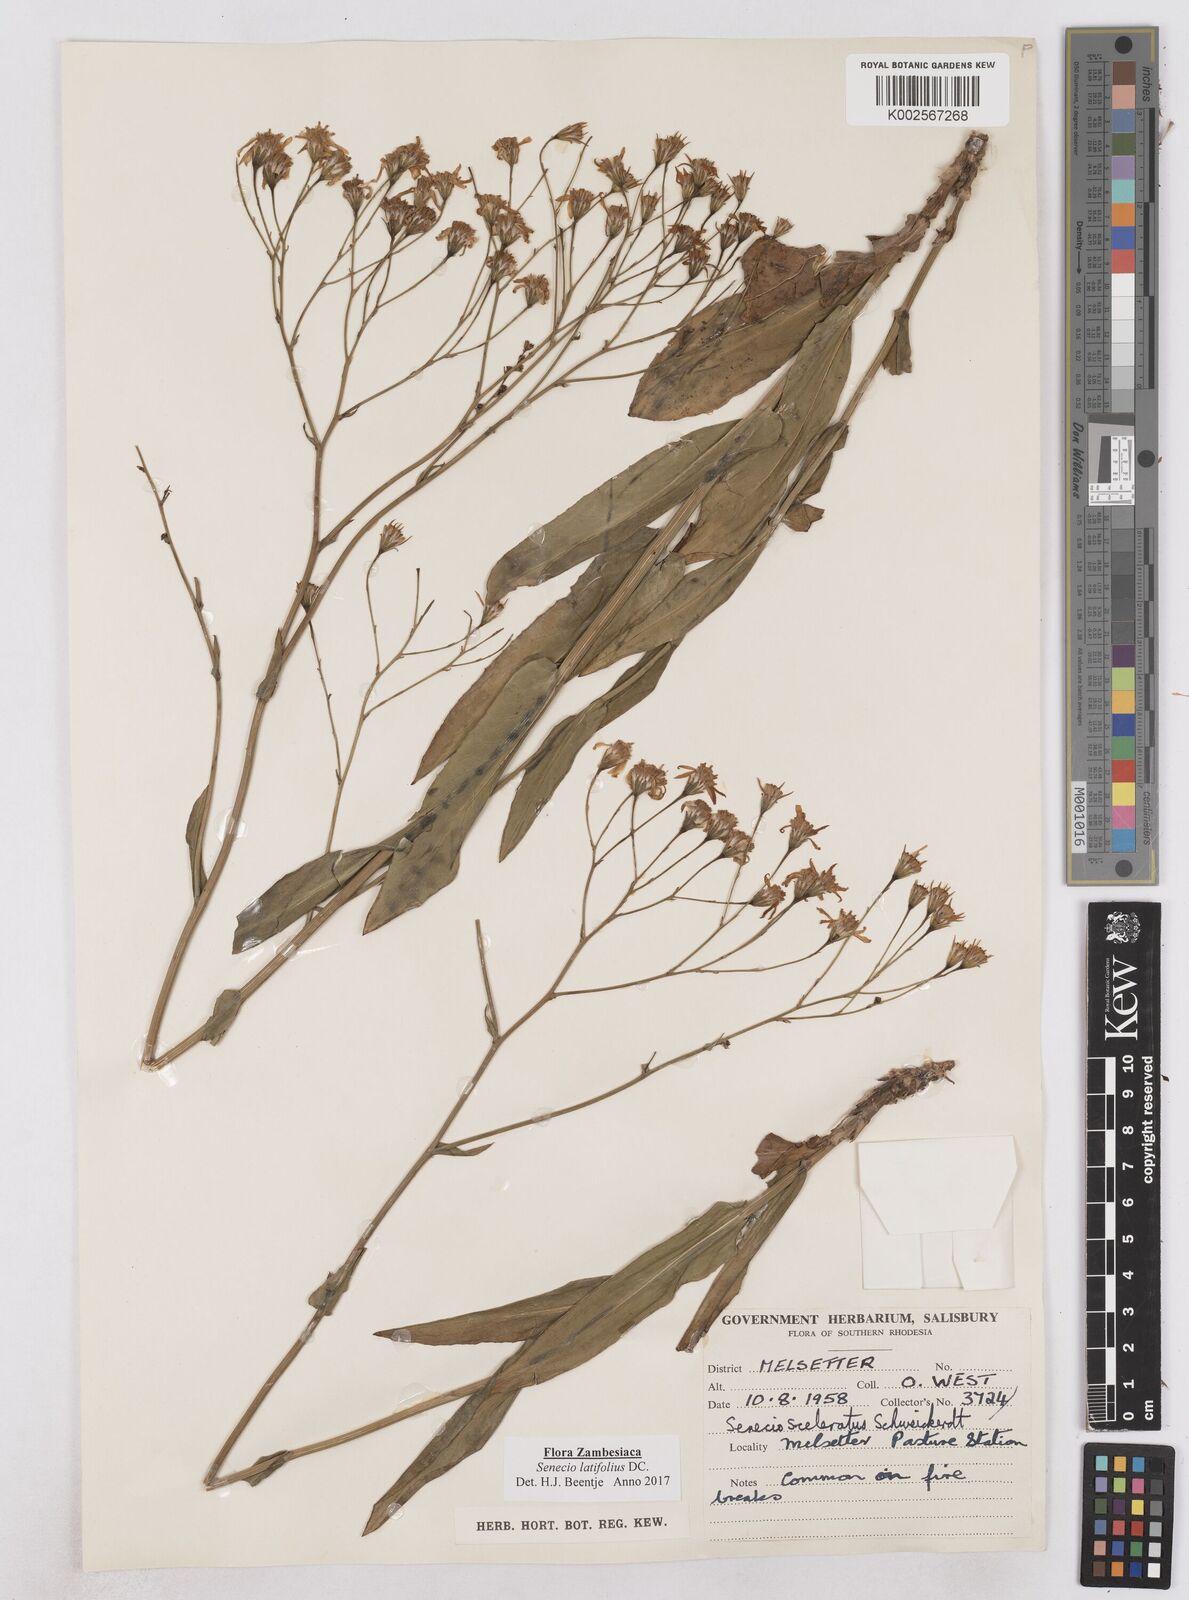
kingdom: Plantae
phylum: Tracheophyta
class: Magnoliopsida
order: Asterales
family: Asteraceae
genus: Senecio
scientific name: Senecio latifolius
